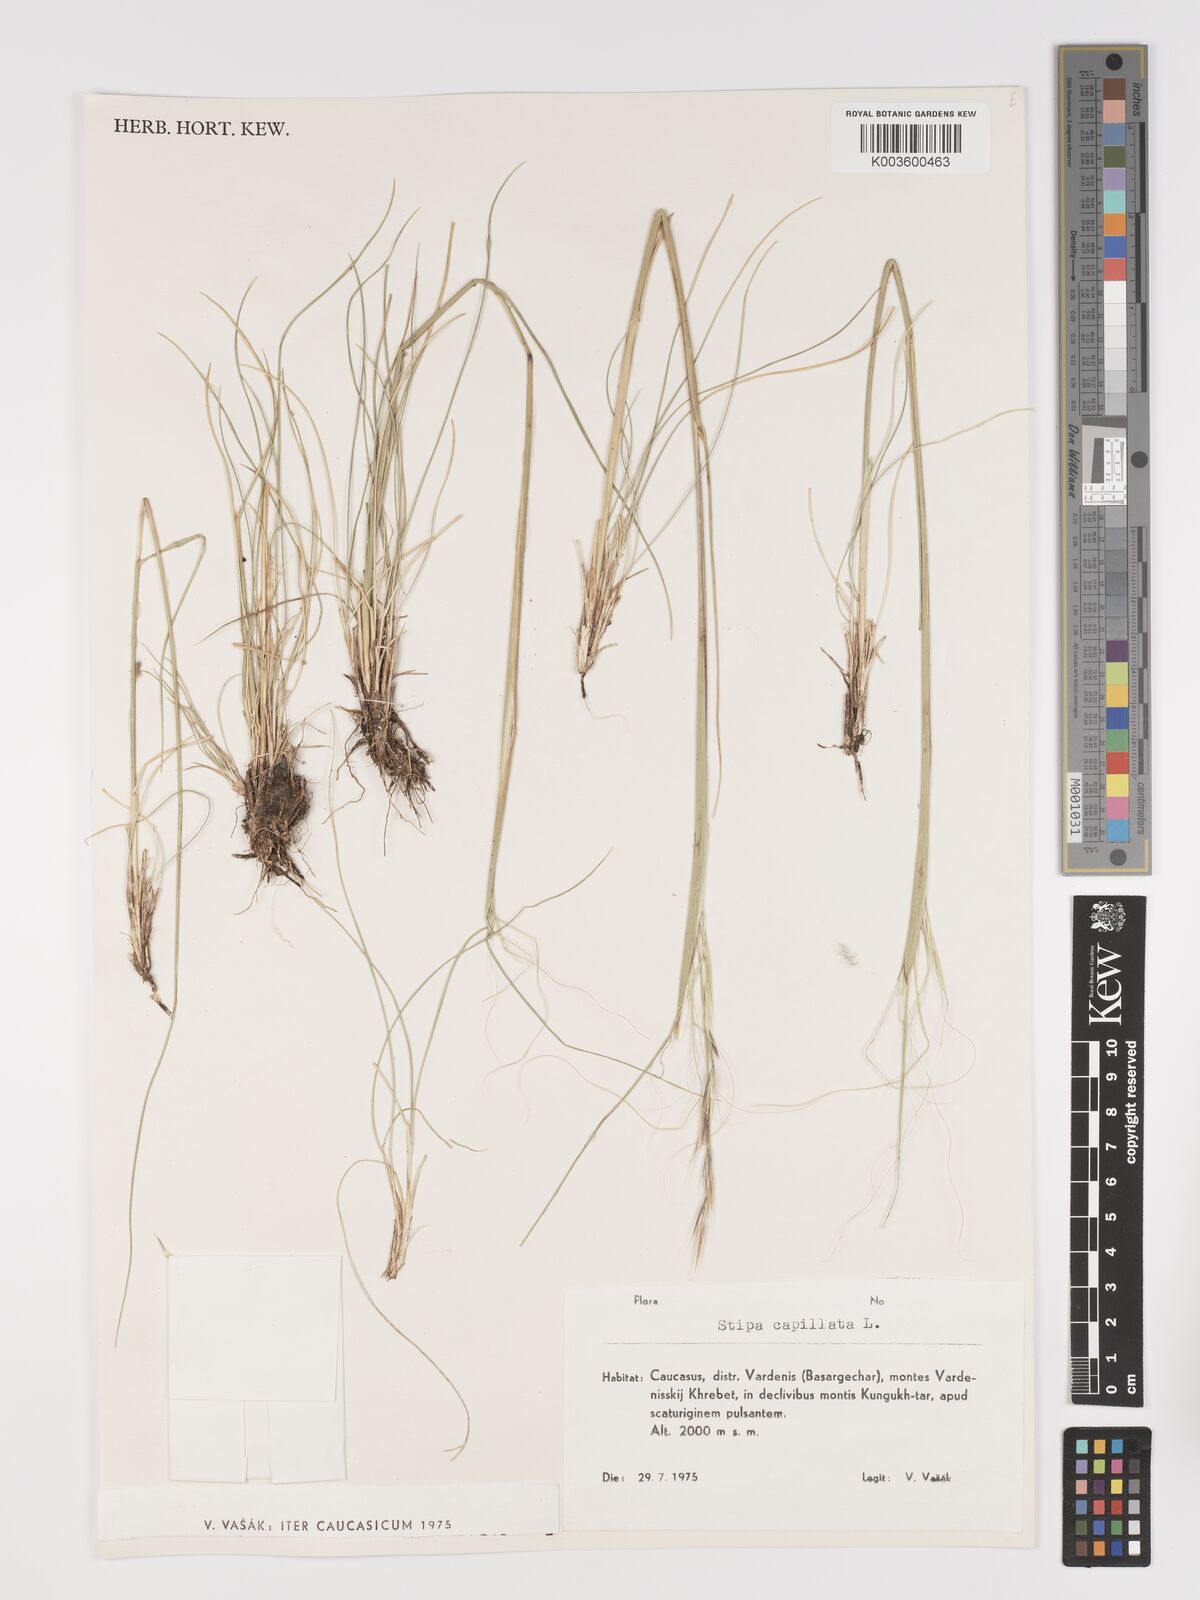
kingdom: Plantae
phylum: Tracheophyta
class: Liliopsida
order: Poales
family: Poaceae
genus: Stipa
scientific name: Stipa capillata
